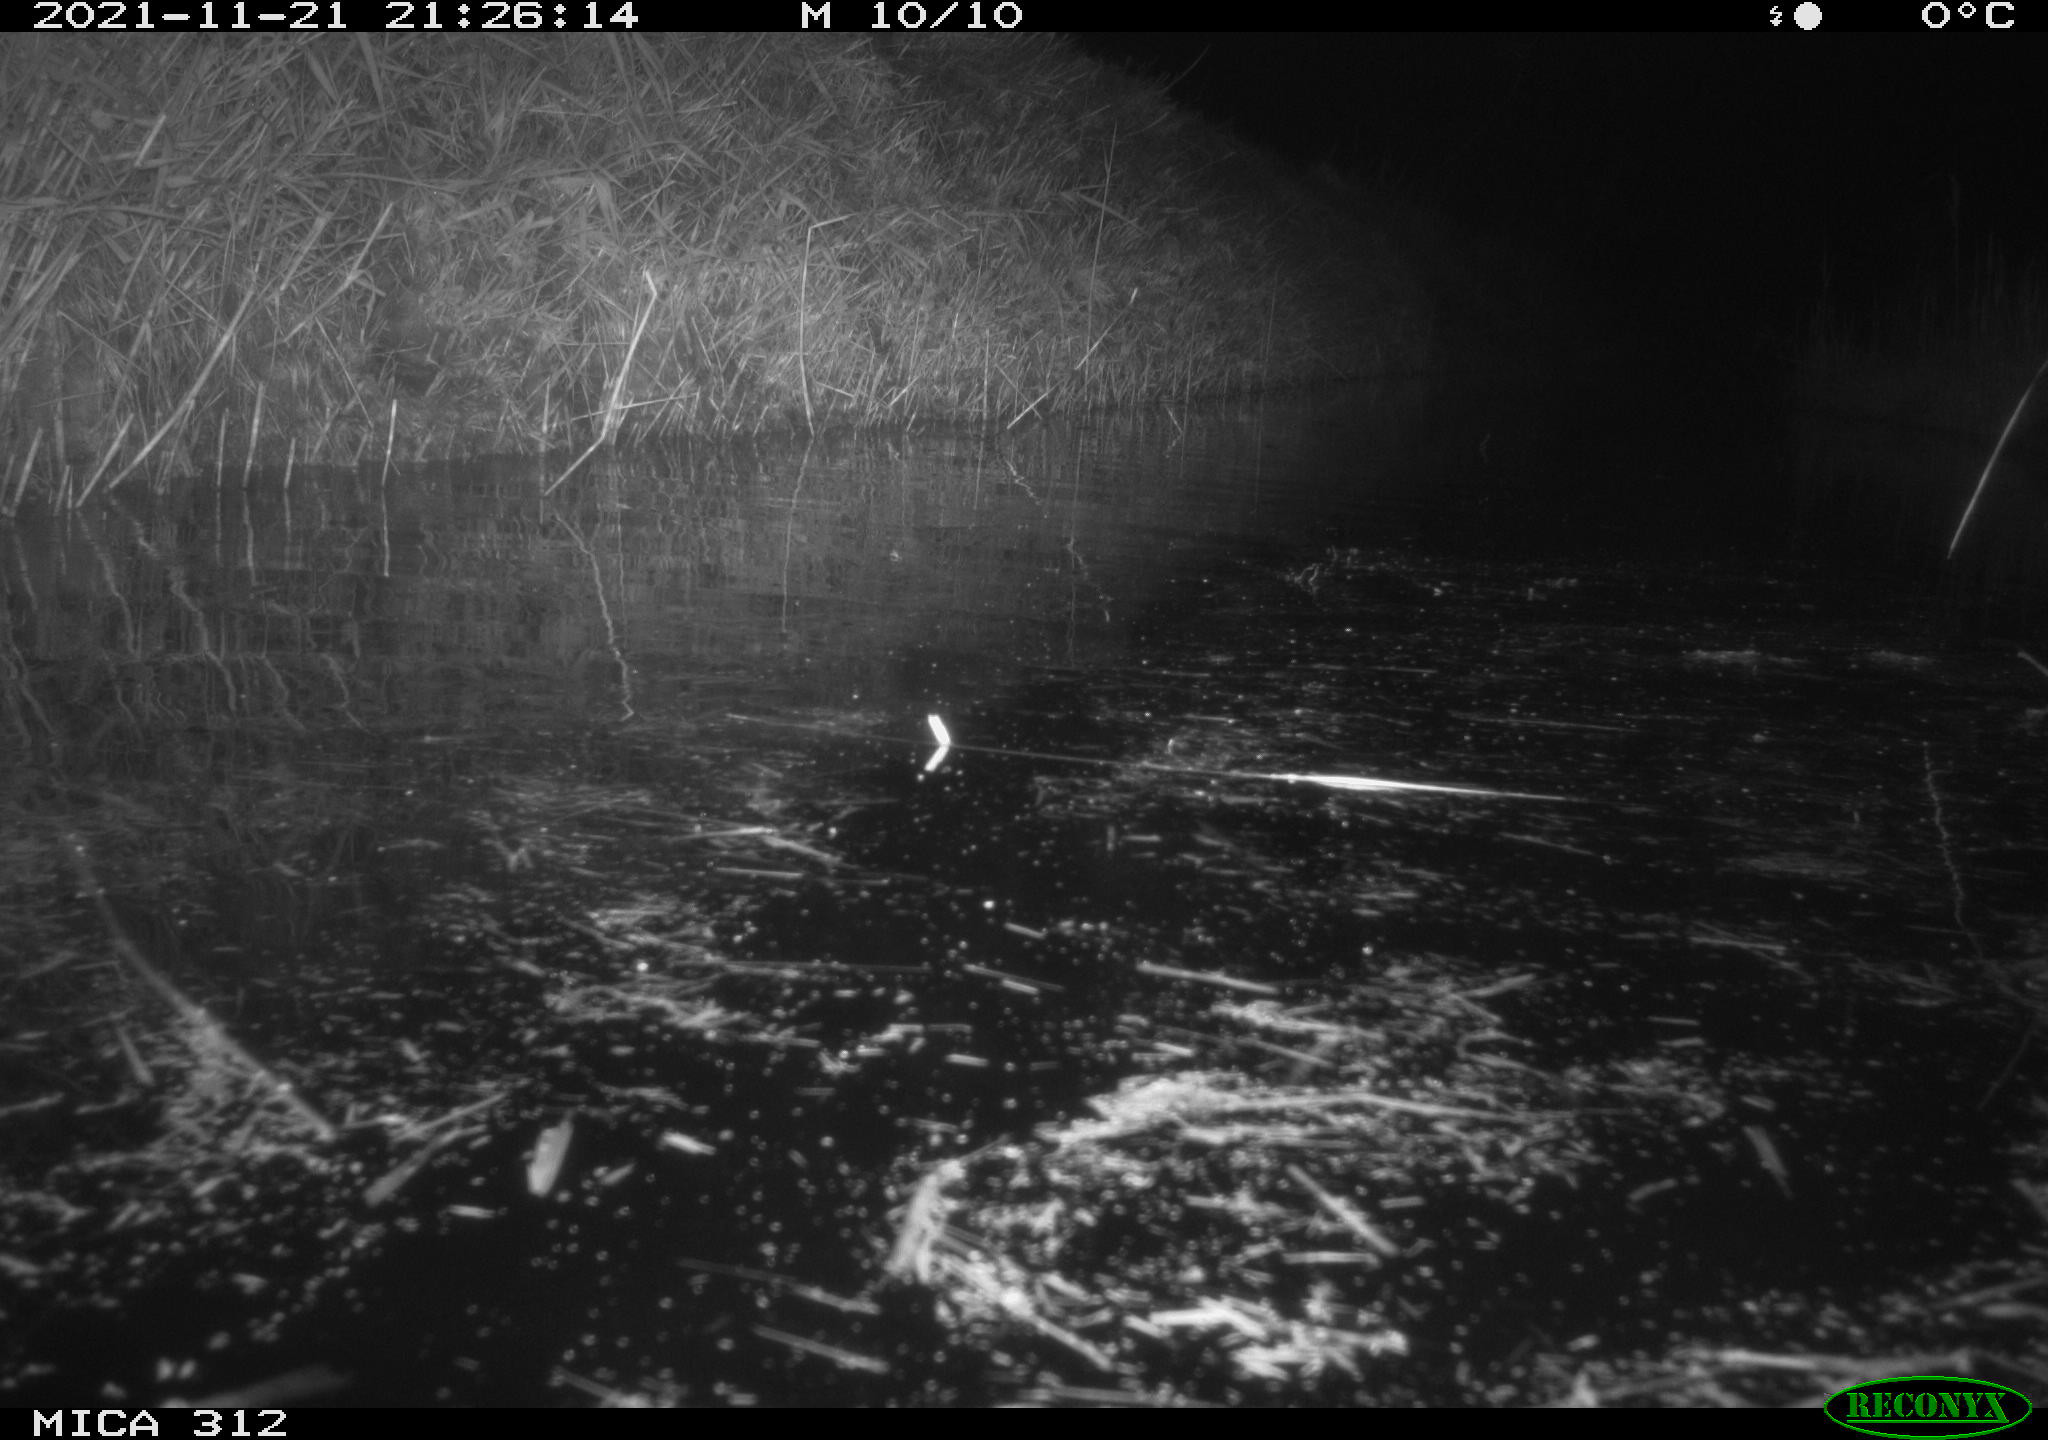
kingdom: Animalia
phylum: Chordata
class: Mammalia
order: Rodentia
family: Cricetidae
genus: Ondatra
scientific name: Ondatra zibethicus
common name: Muskrat
